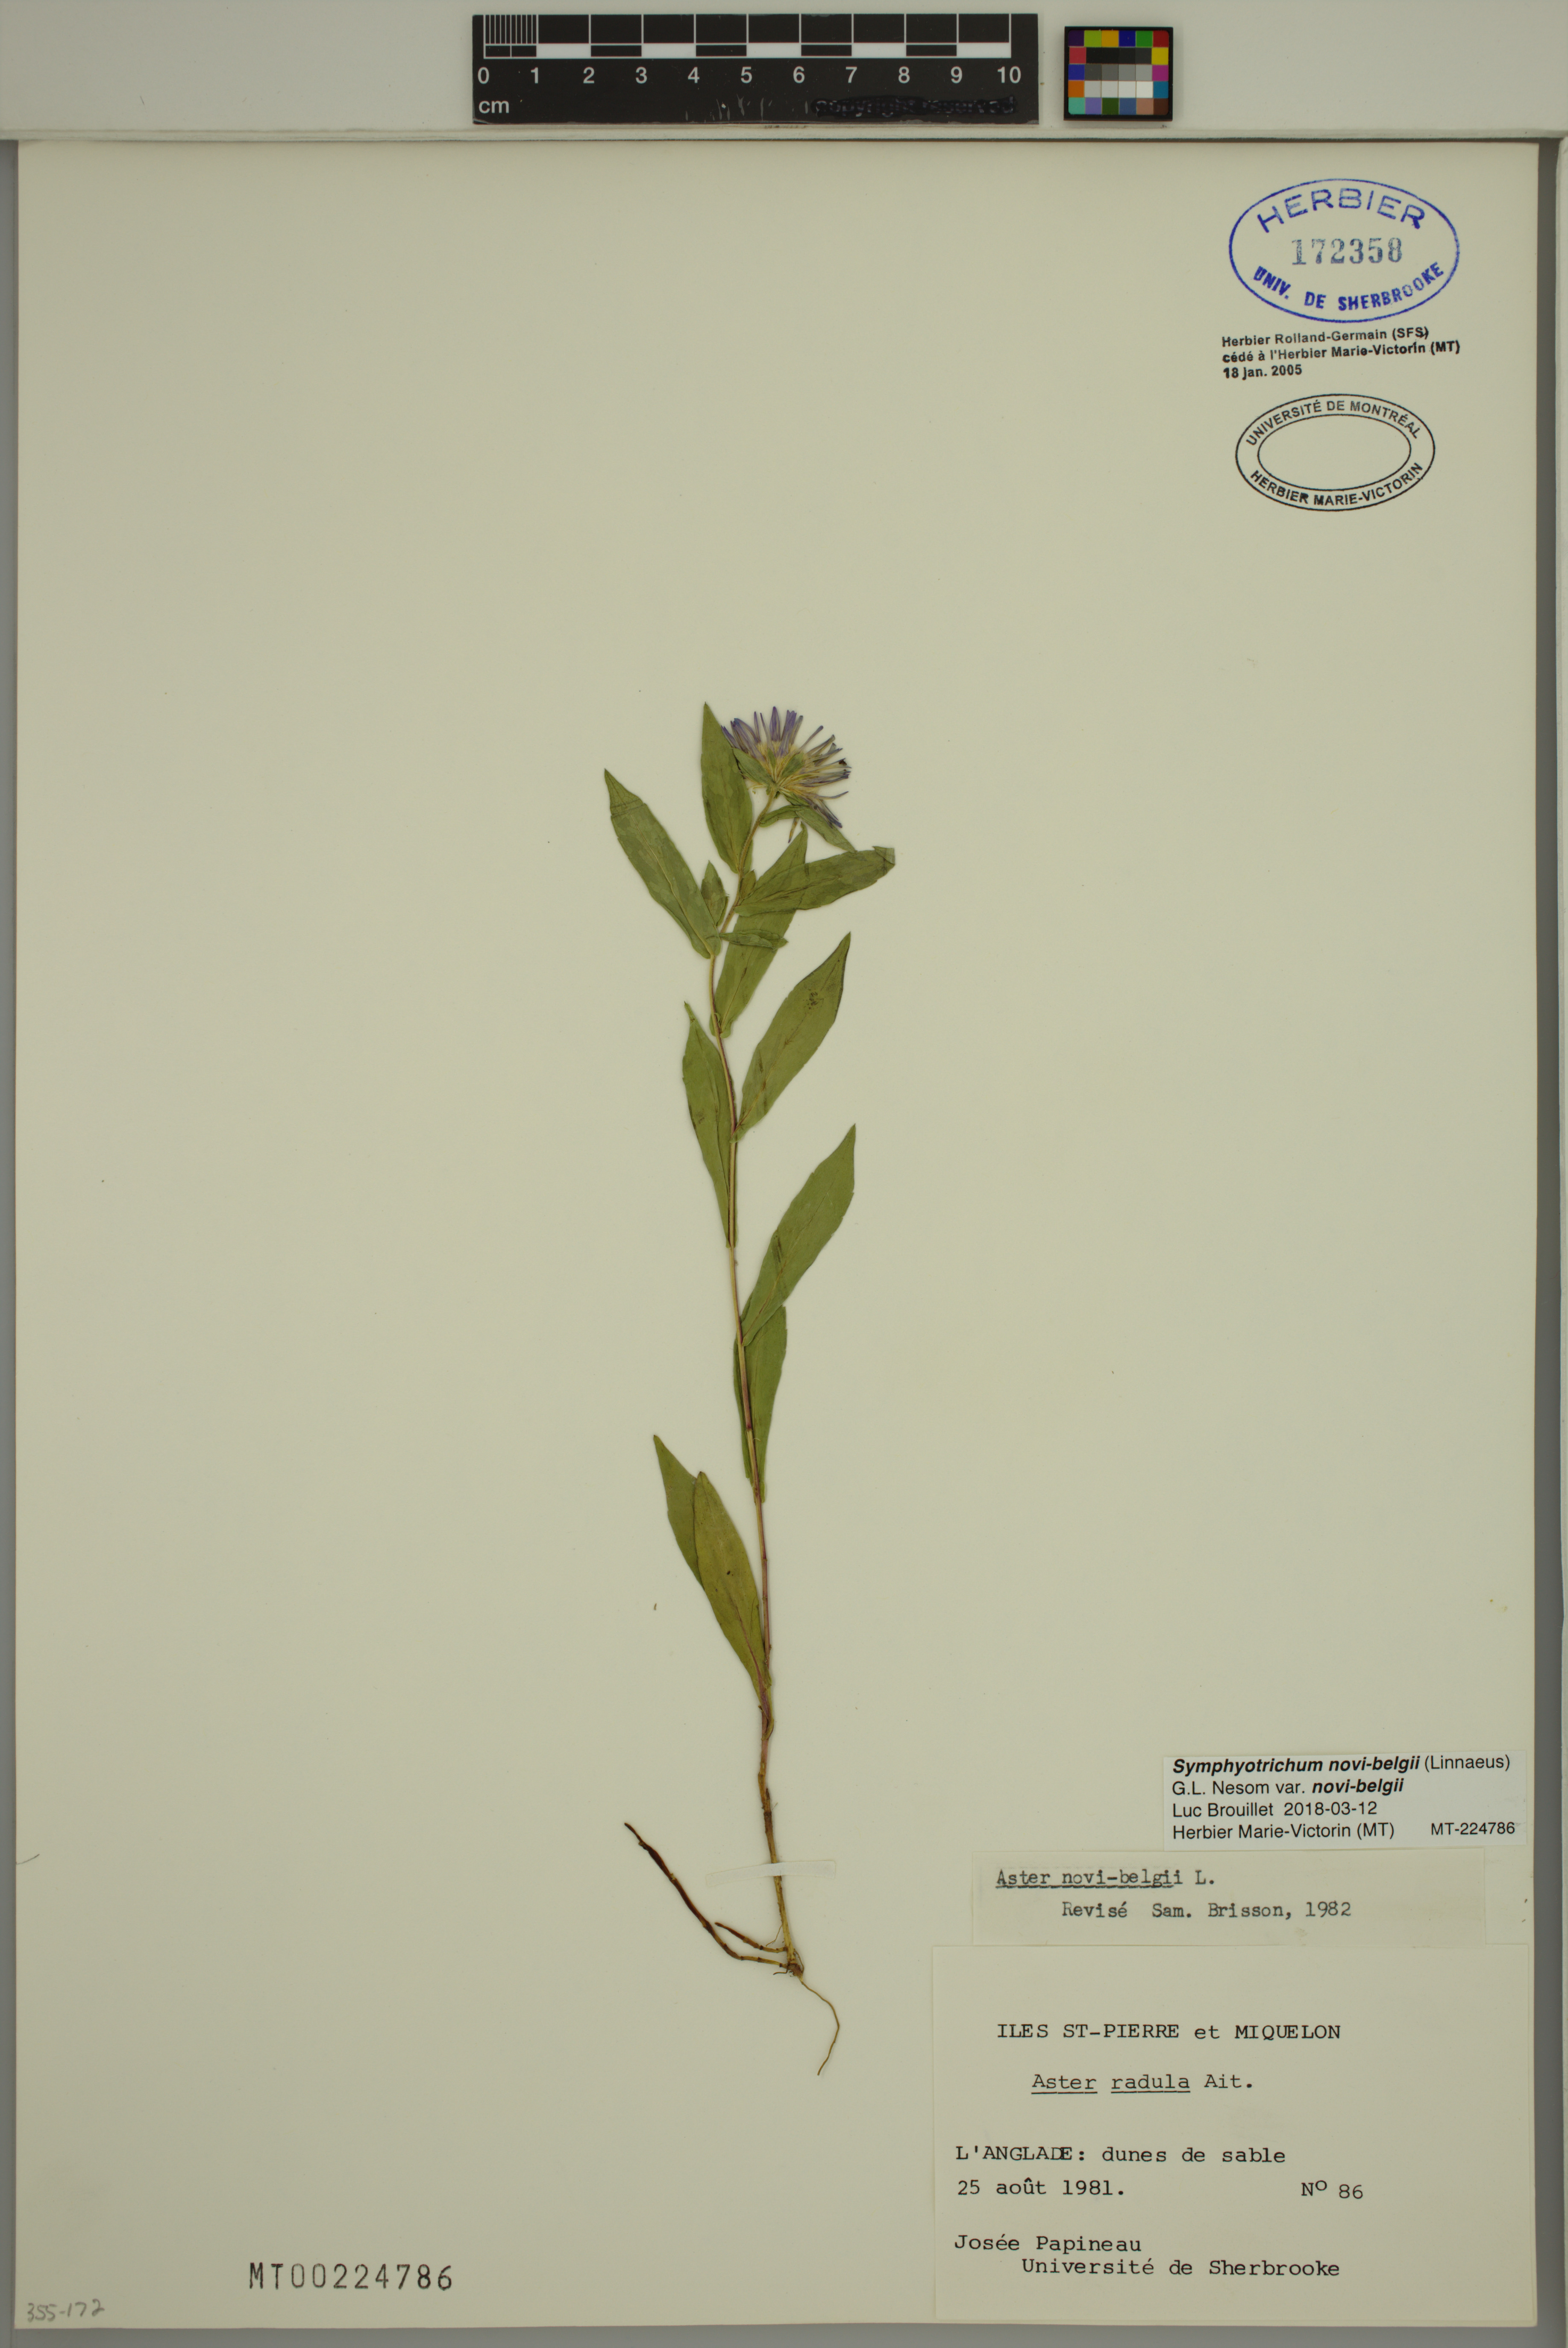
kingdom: Plantae
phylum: Tracheophyta
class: Magnoliopsida
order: Asterales
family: Asteraceae
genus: Symphyotrichum
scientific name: Symphyotrichum novi-belgii
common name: Michaelmas daisy
